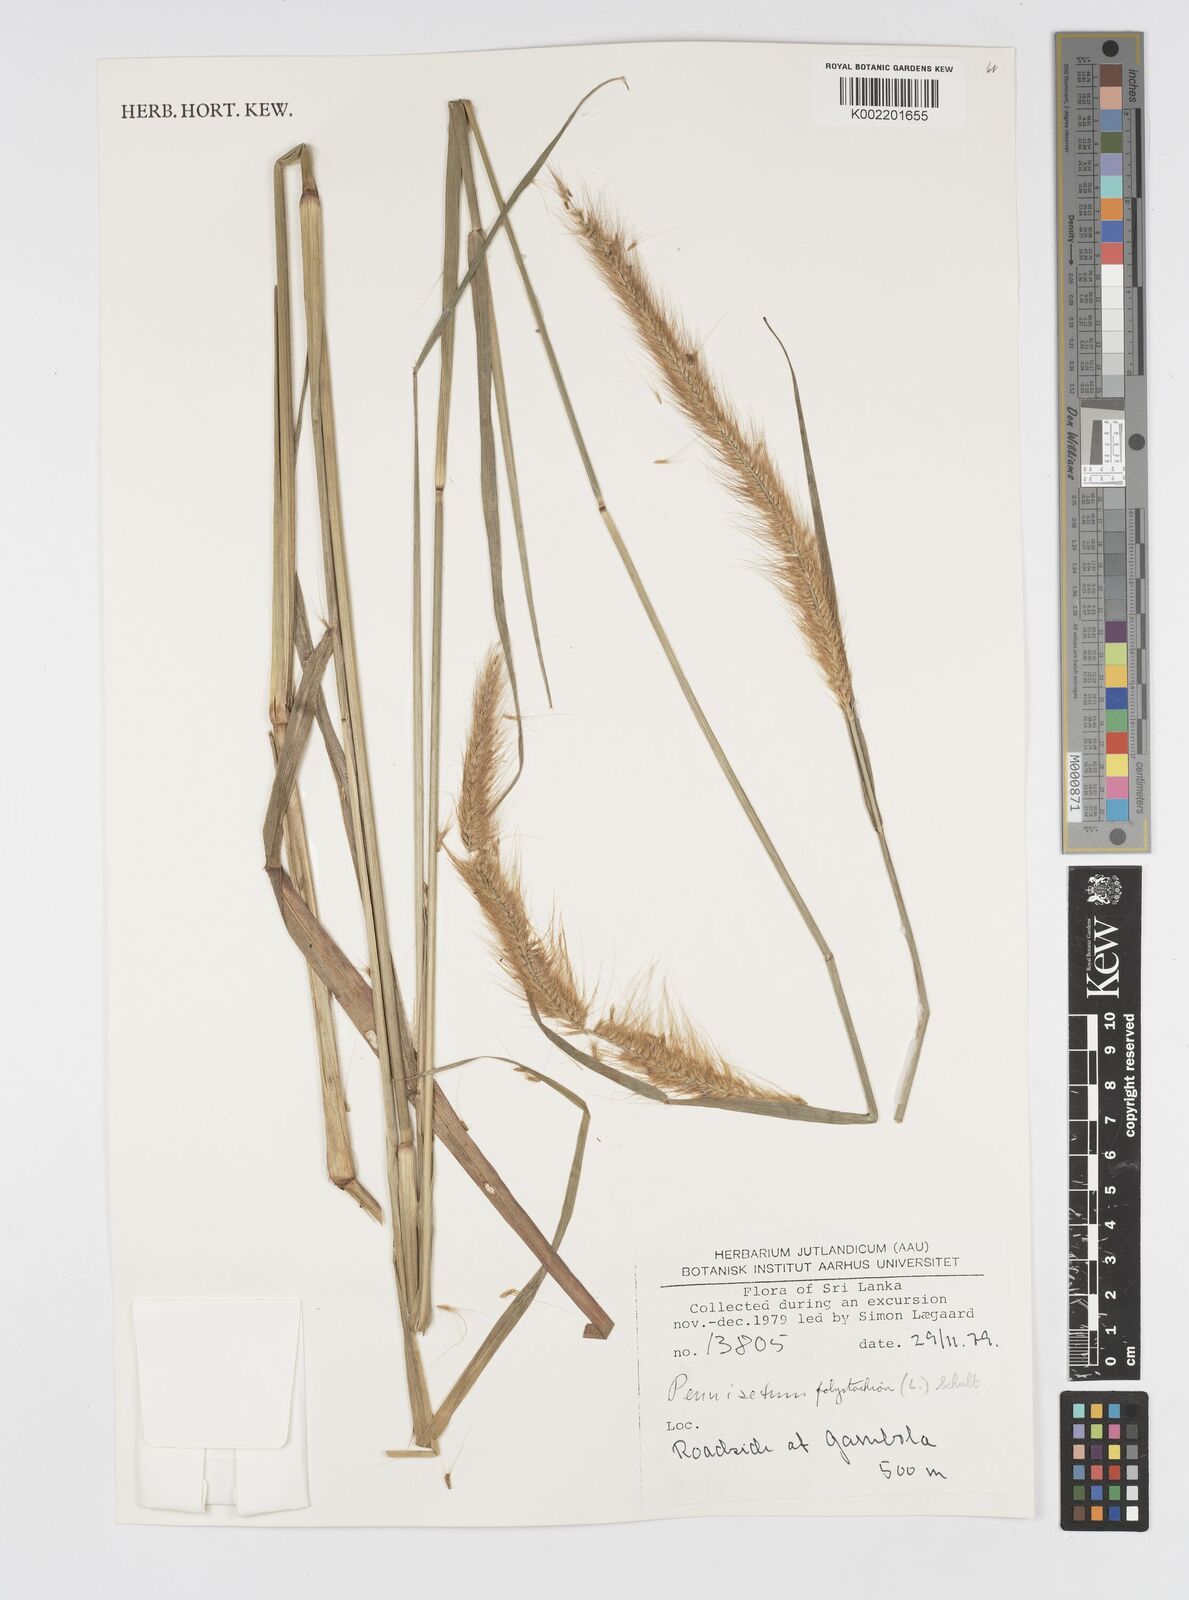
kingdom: Plantae
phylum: Tracheophyta
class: Liliopsida
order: Poales
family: Poaceae
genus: Setaria
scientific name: Setaria parviflora
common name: Knotroot bristle-grass
